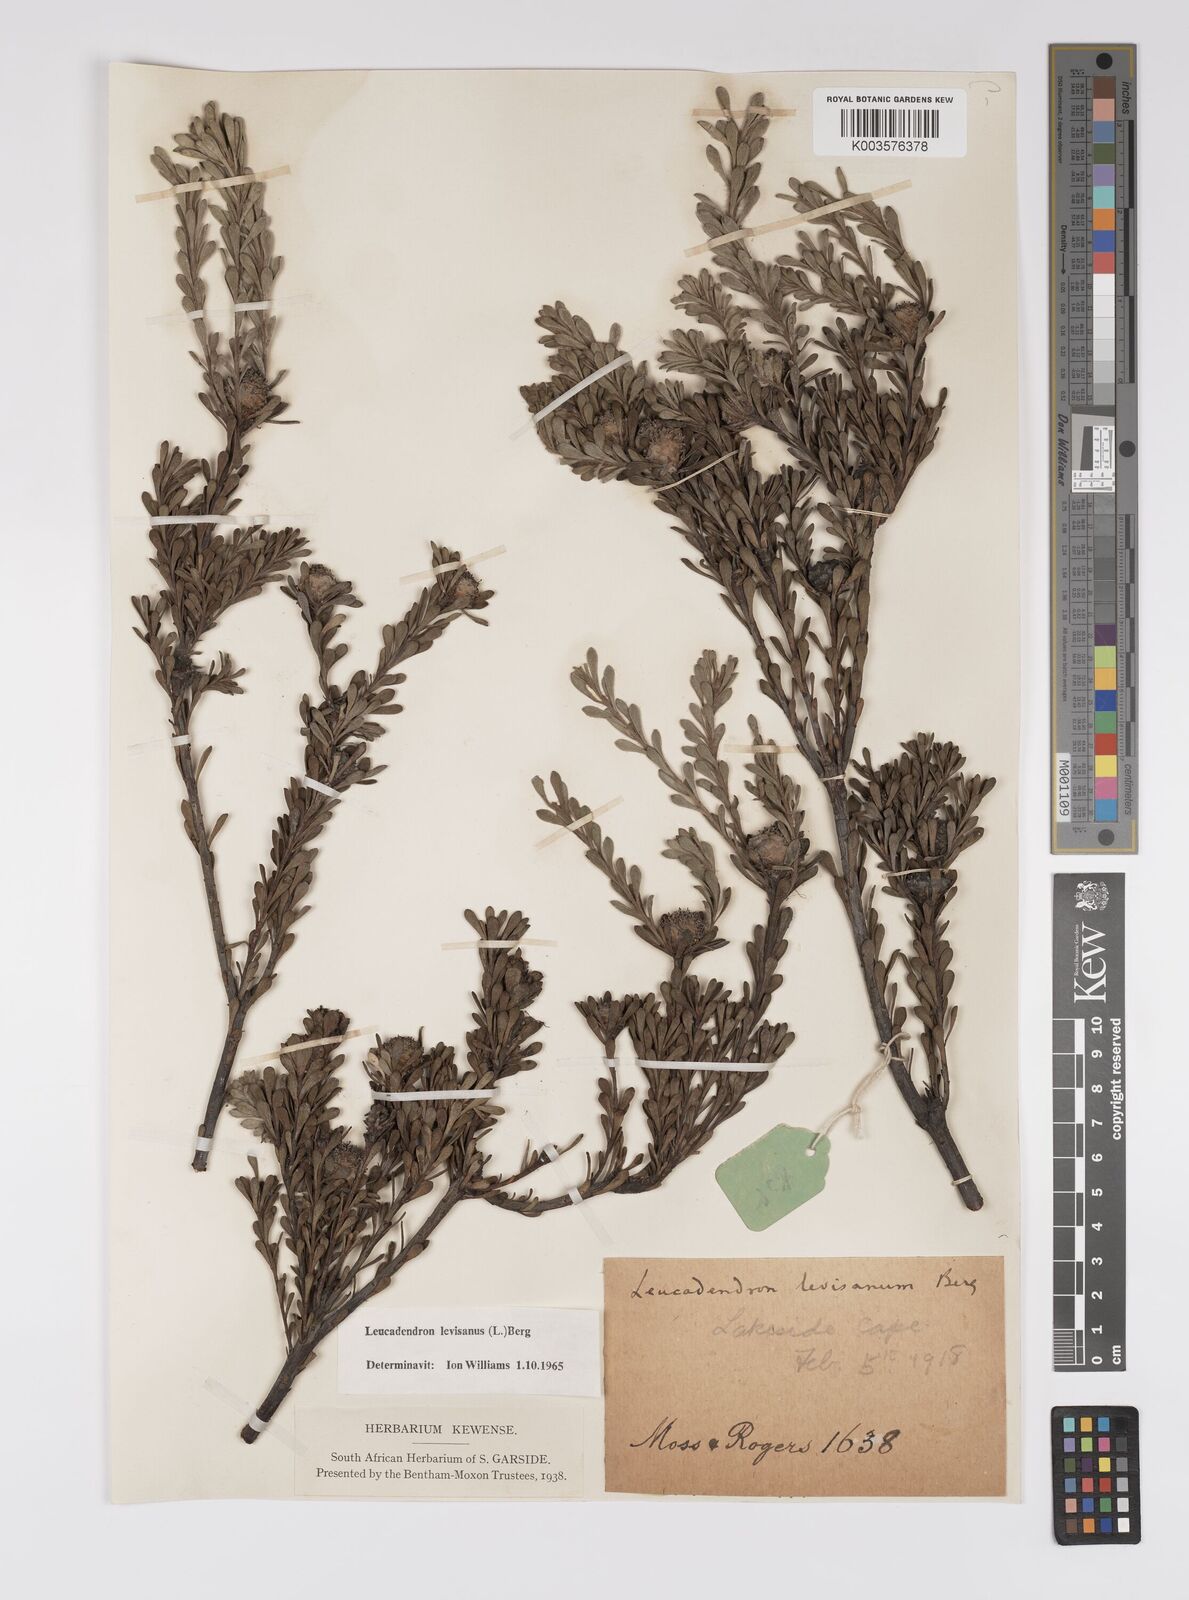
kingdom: Plantae
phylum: Tracheophyta
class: Magnoliopsida
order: Proteales
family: Proteaceae
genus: Leucadendron
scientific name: Leucadendron levisanus
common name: Cape flats conebush
